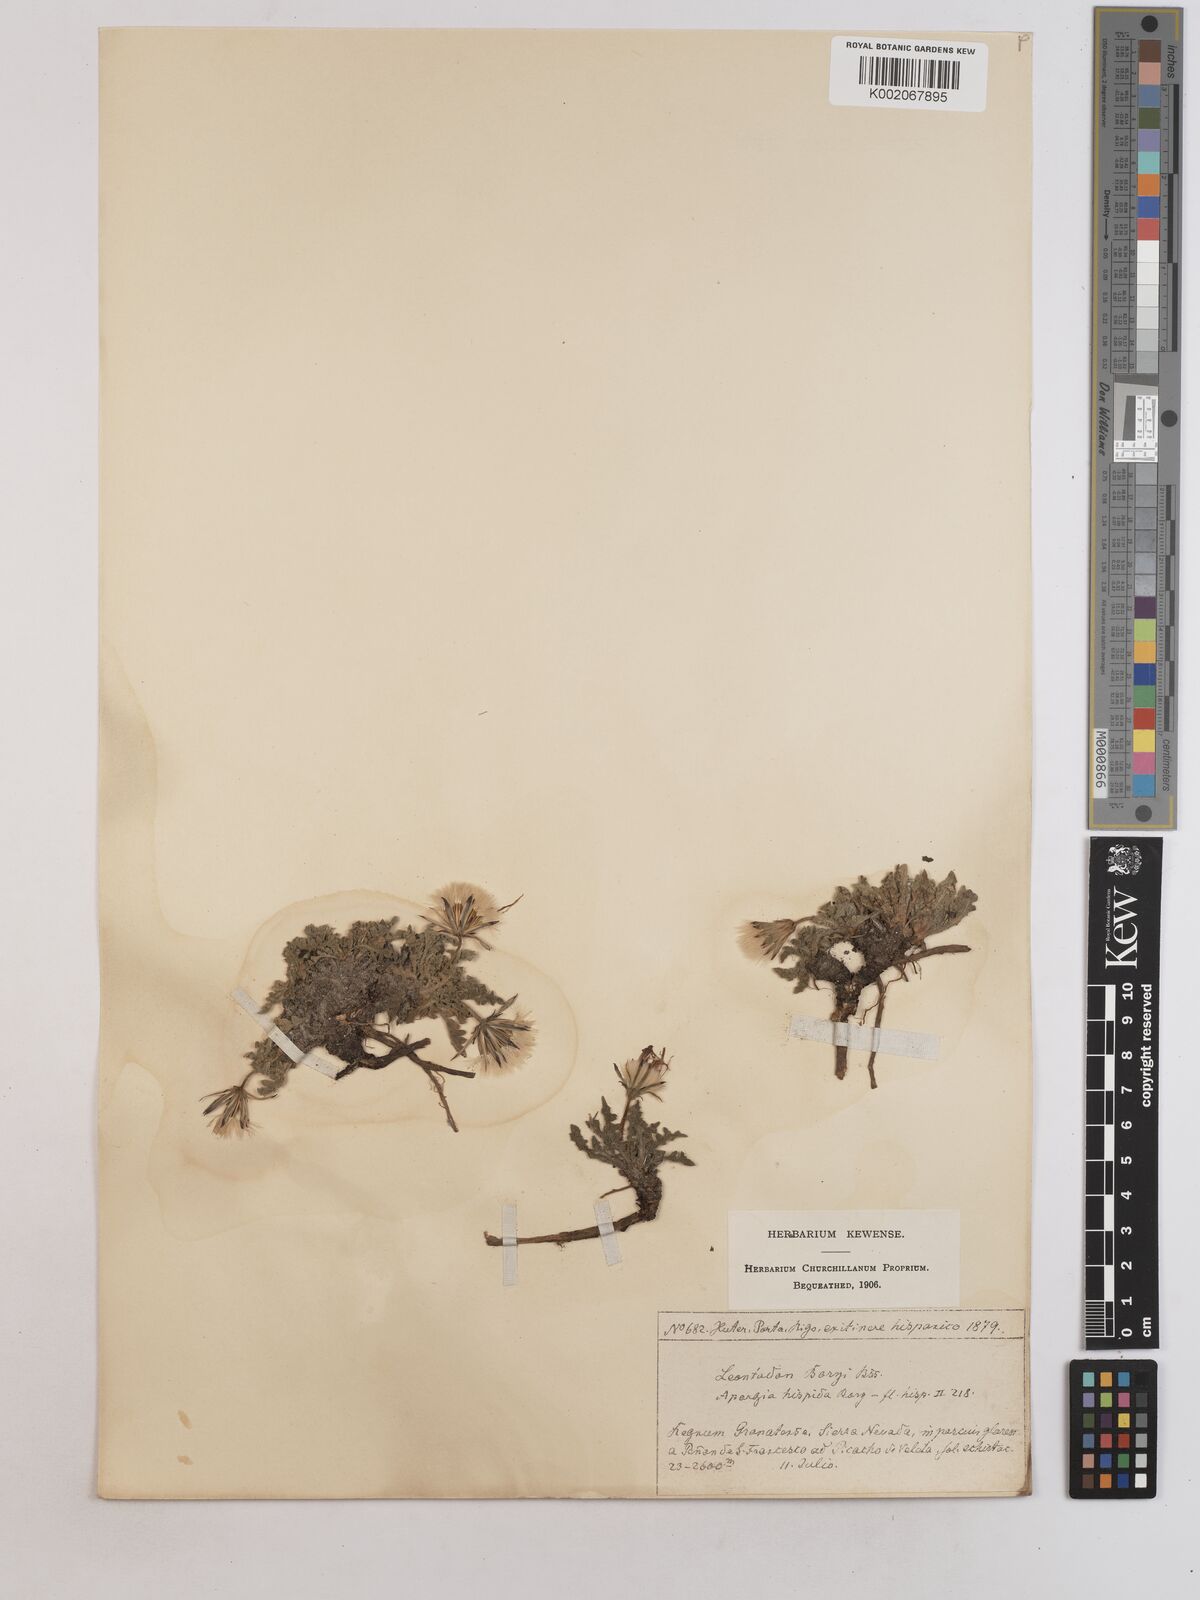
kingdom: Plantae
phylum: Tracheophyta
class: Magnoliopsida
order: Asterales
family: Asteraceae
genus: Leontodon
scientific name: Leontodon boryi
